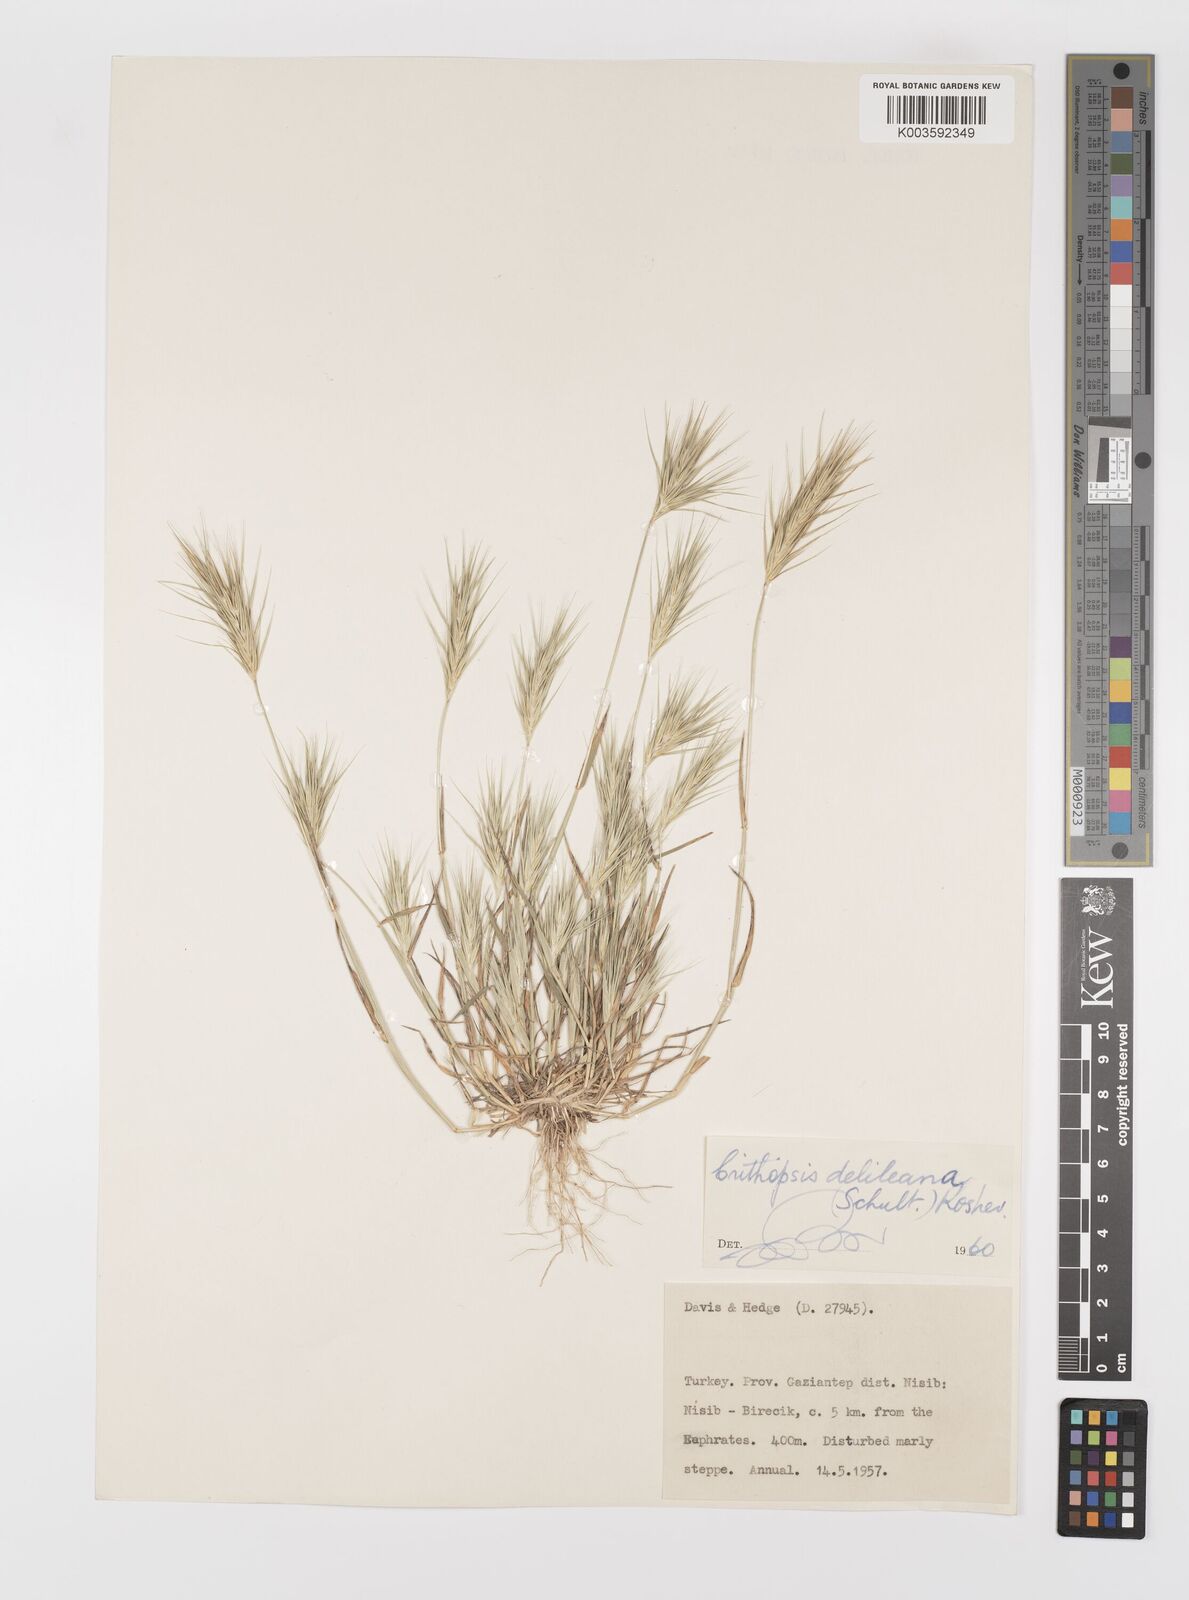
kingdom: Plantae
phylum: Tracheophyta
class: Liliopsida
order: Poales
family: Poaceae
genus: Crithopsis
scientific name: Crithopsis delileana
